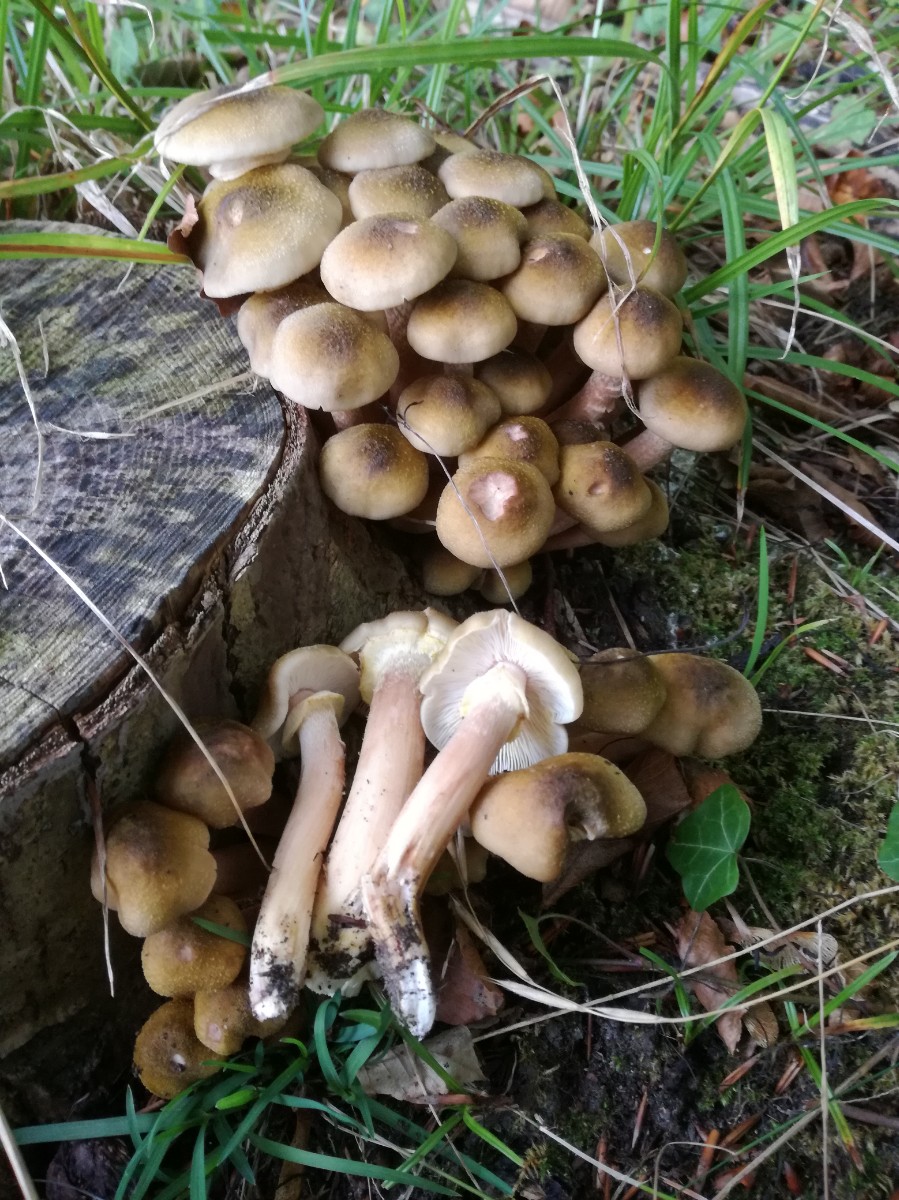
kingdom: Fungi
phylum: Basidiomycota
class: Agaricomycetes
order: Agaricales
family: Physalacriaceae
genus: Armillaria
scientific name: Armillaria mellea
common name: ægte honningsvamp
